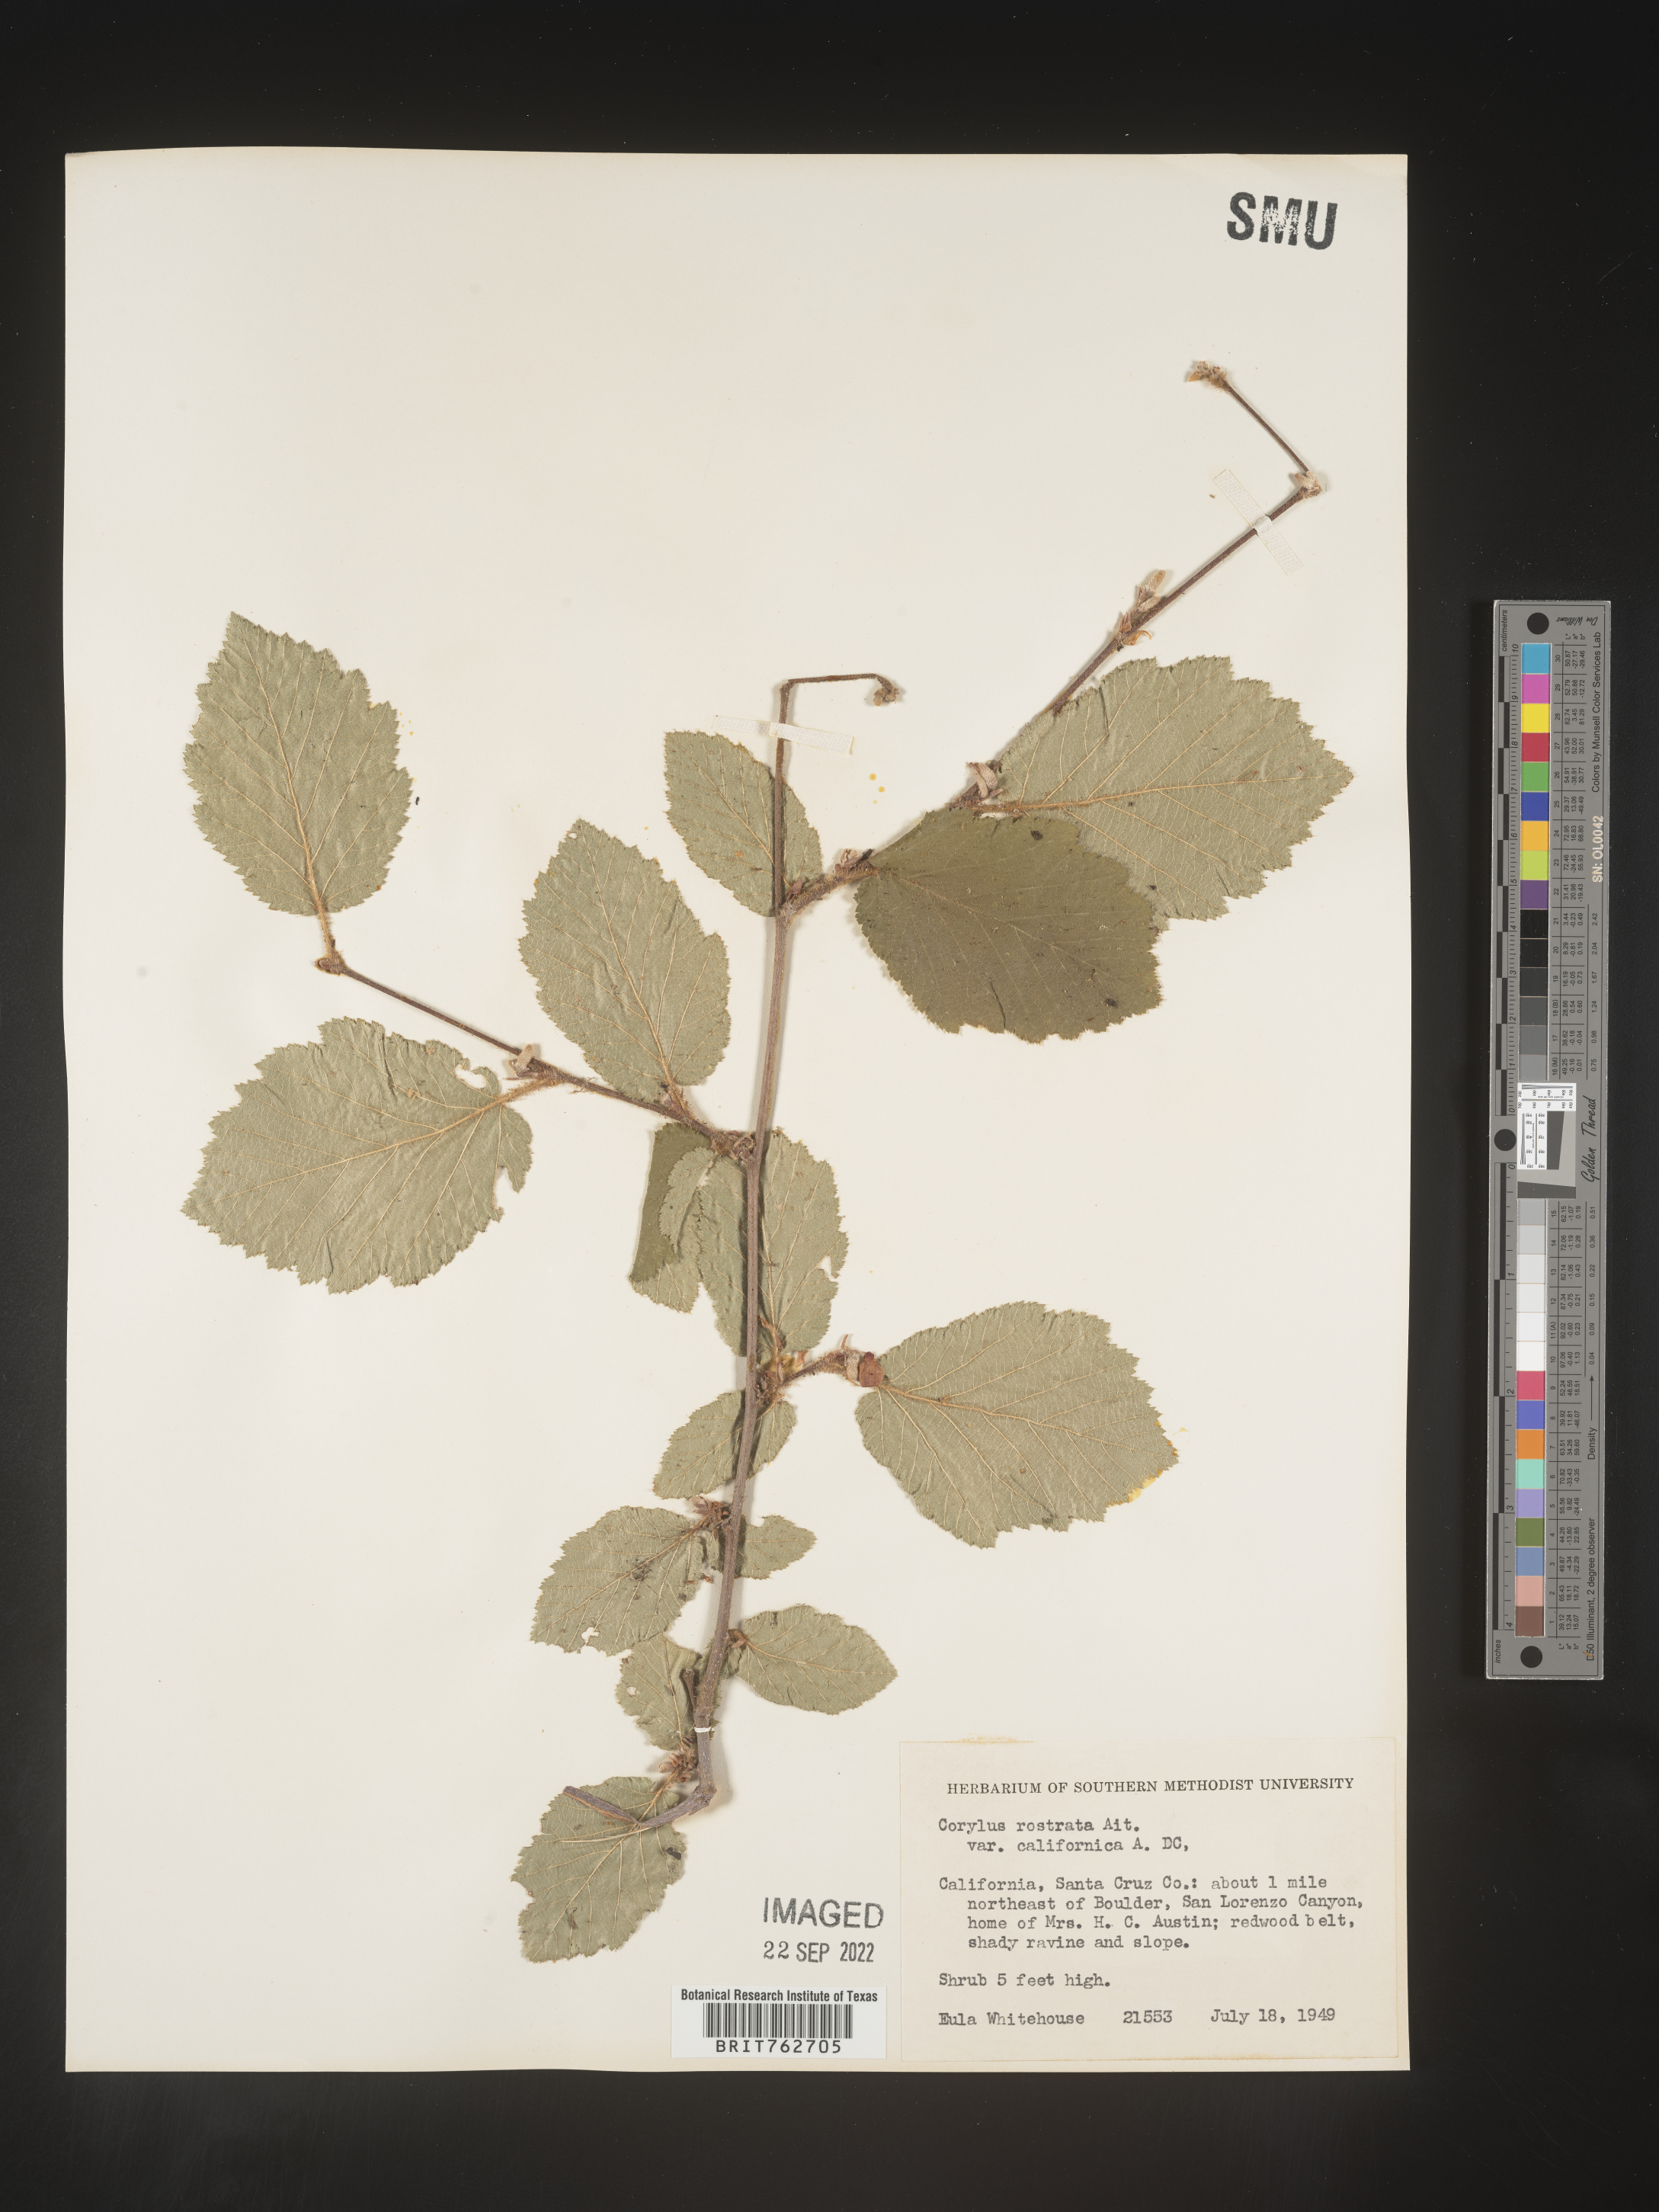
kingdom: Plantae
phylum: Tracheophyta
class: Magnoliopsida
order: Fagales
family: Betulaceae
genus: Corylus
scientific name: Corylus cornuta
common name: Beaked hazel
